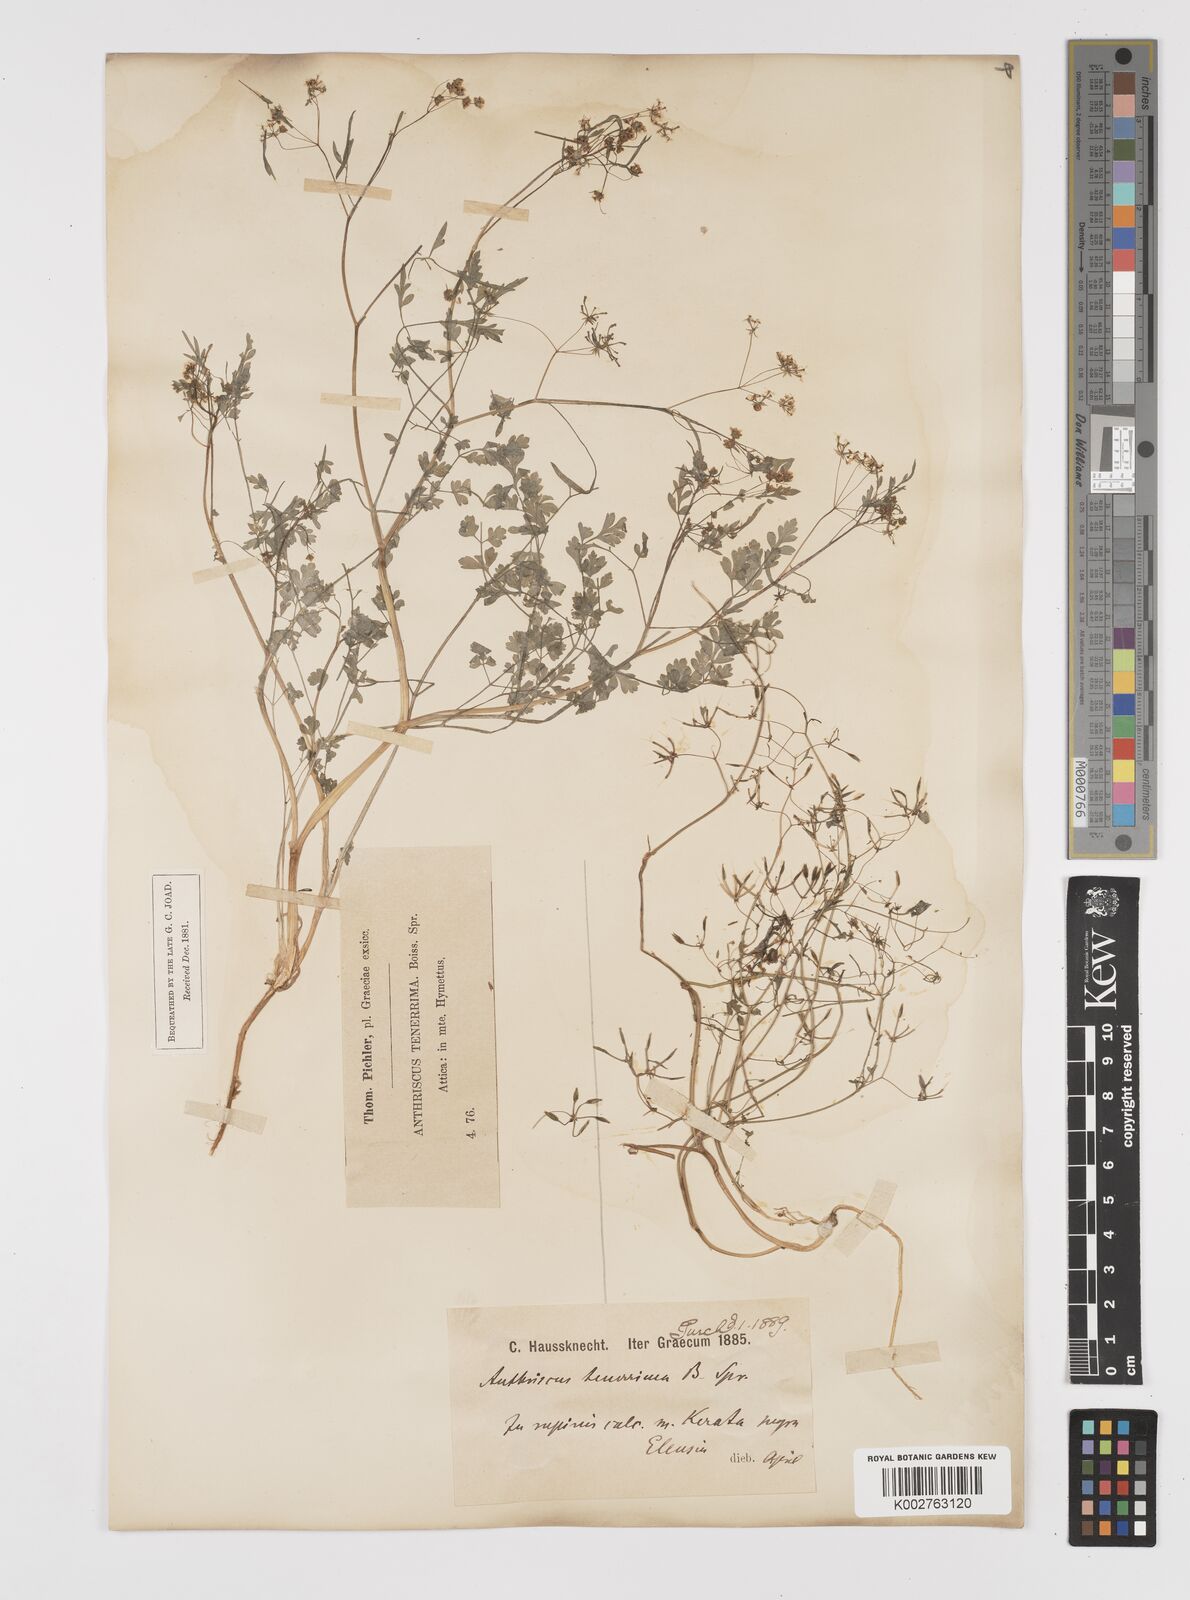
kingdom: Plantae
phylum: Tracheophyta
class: Magnoliopsida
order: Apiales
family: Apiaceae
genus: Anthriscus
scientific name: Anthriscus tenerrima
